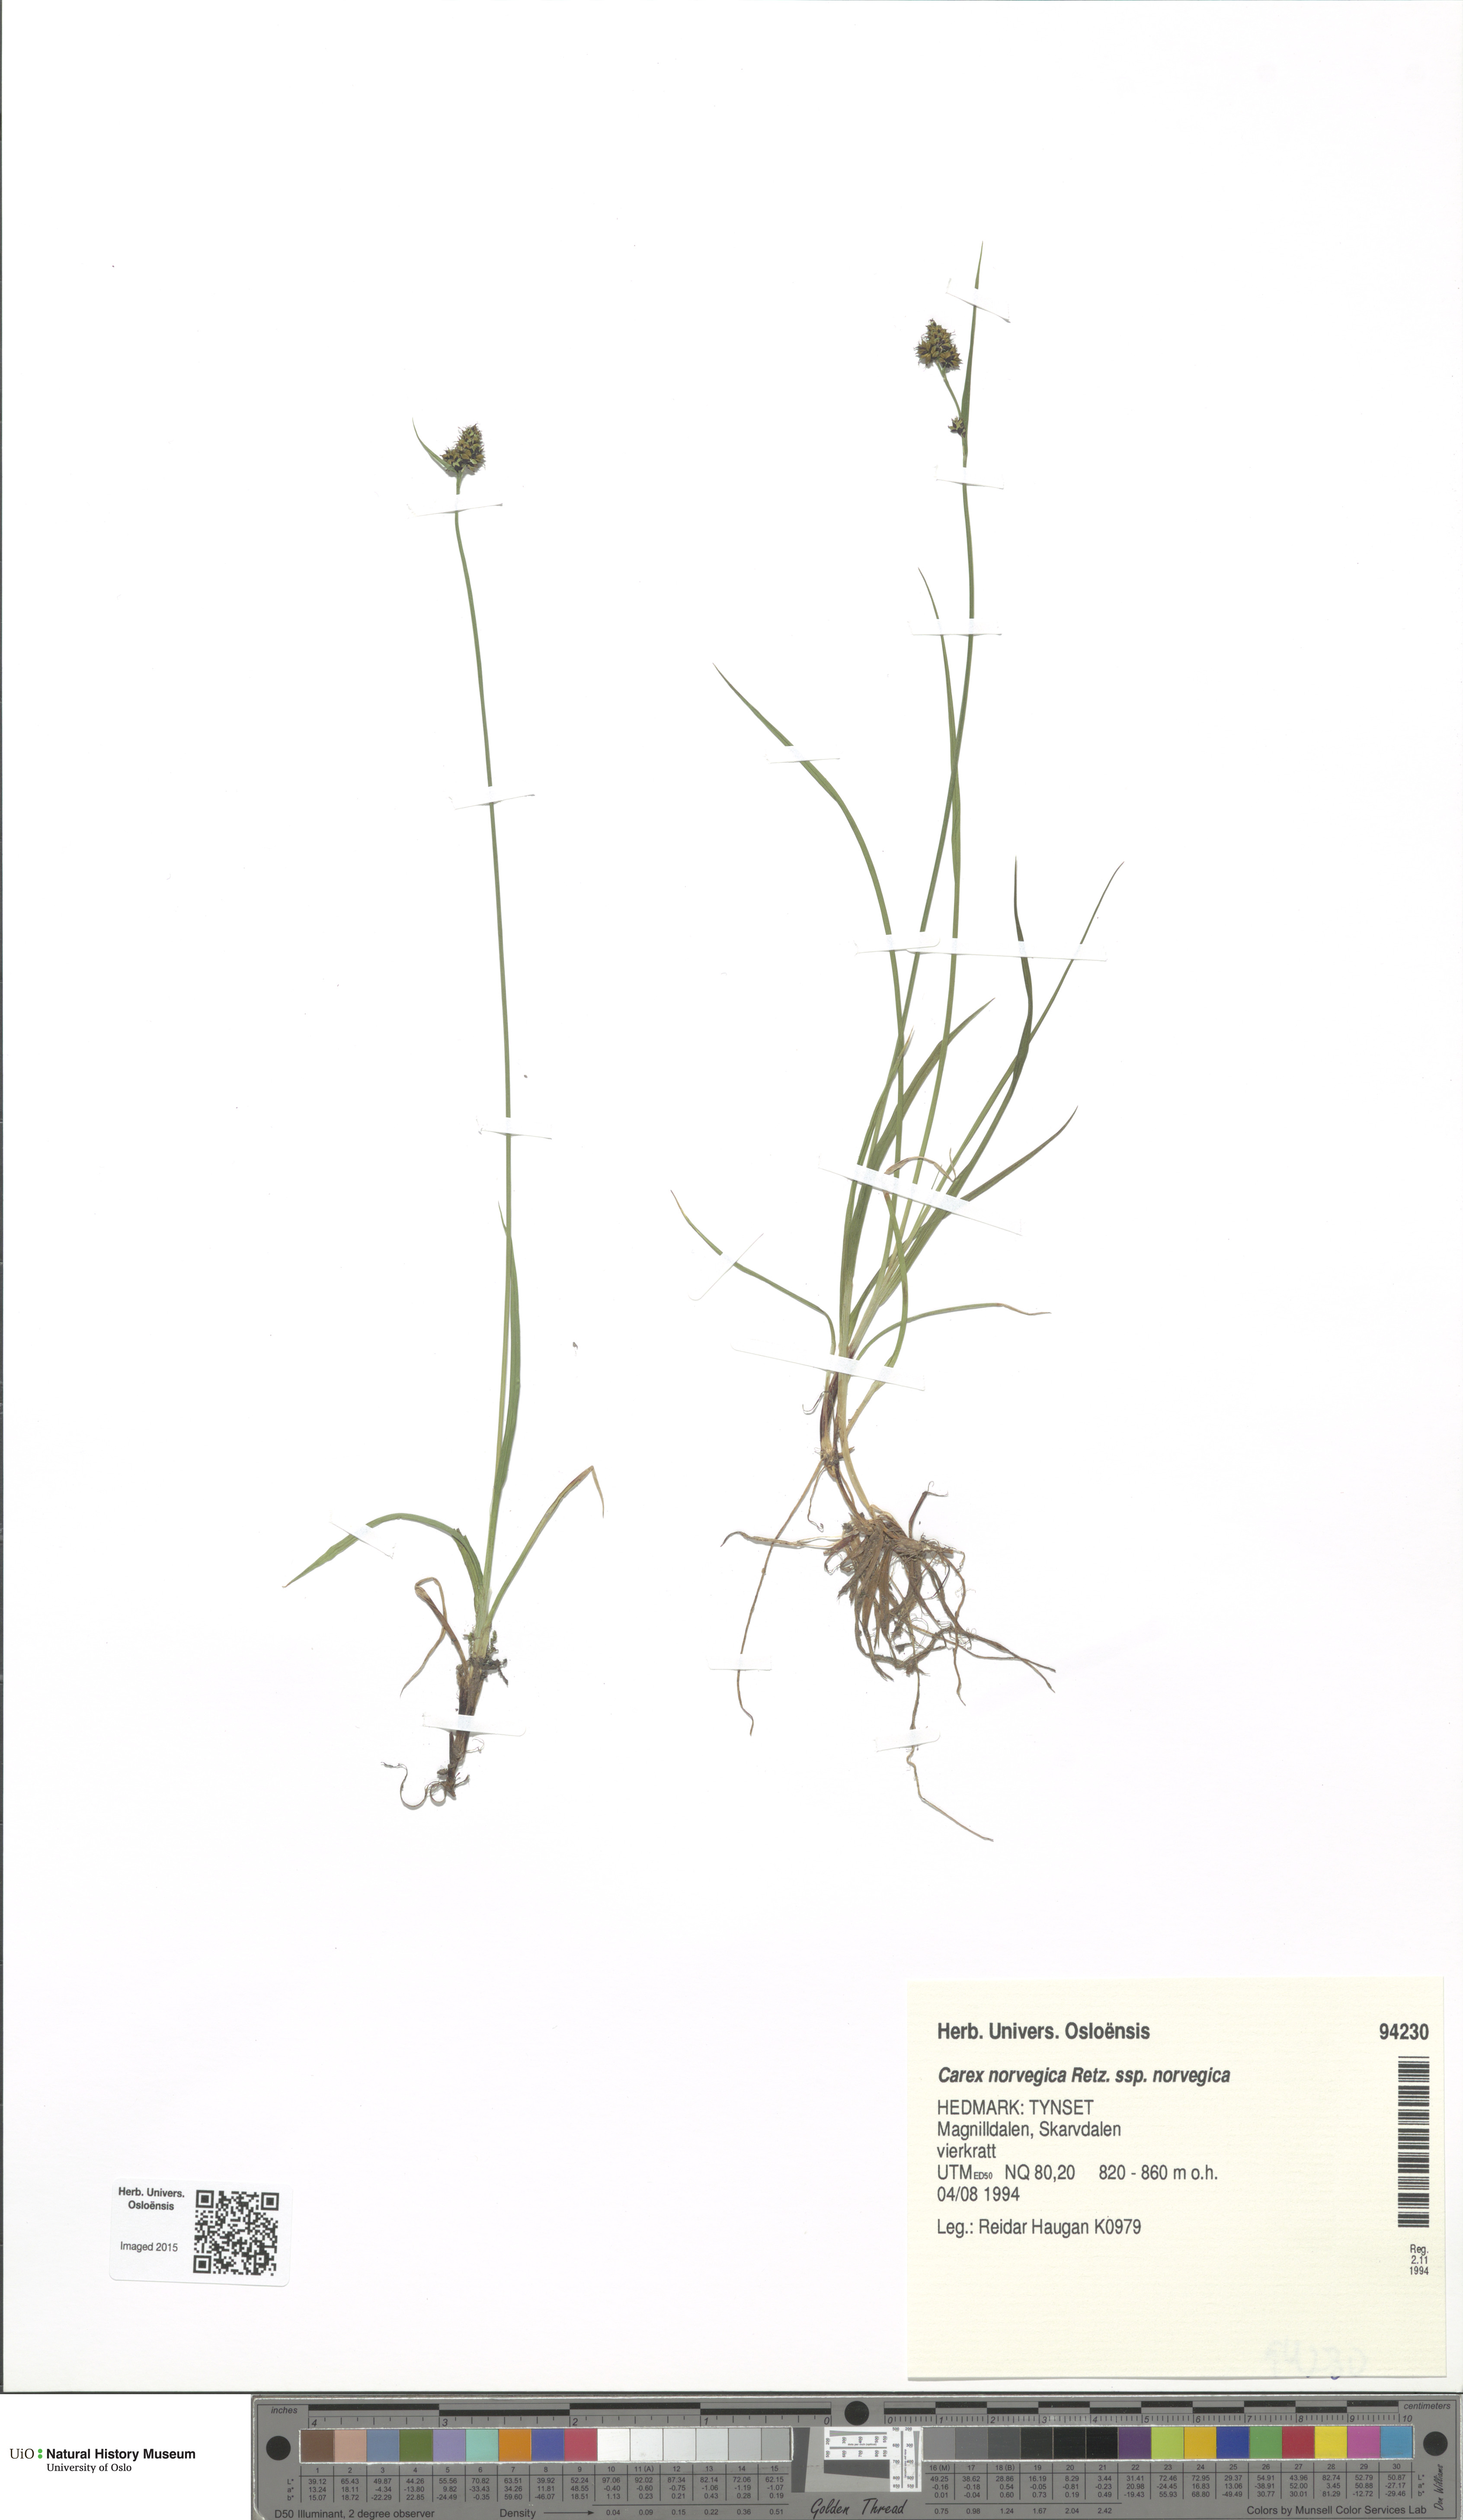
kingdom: Plantae
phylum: Tracheophyta
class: Liliopsida
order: Poales
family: Cyperaceae
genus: Carex
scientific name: Carex norvegica
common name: Close-headed alpine-sedge
